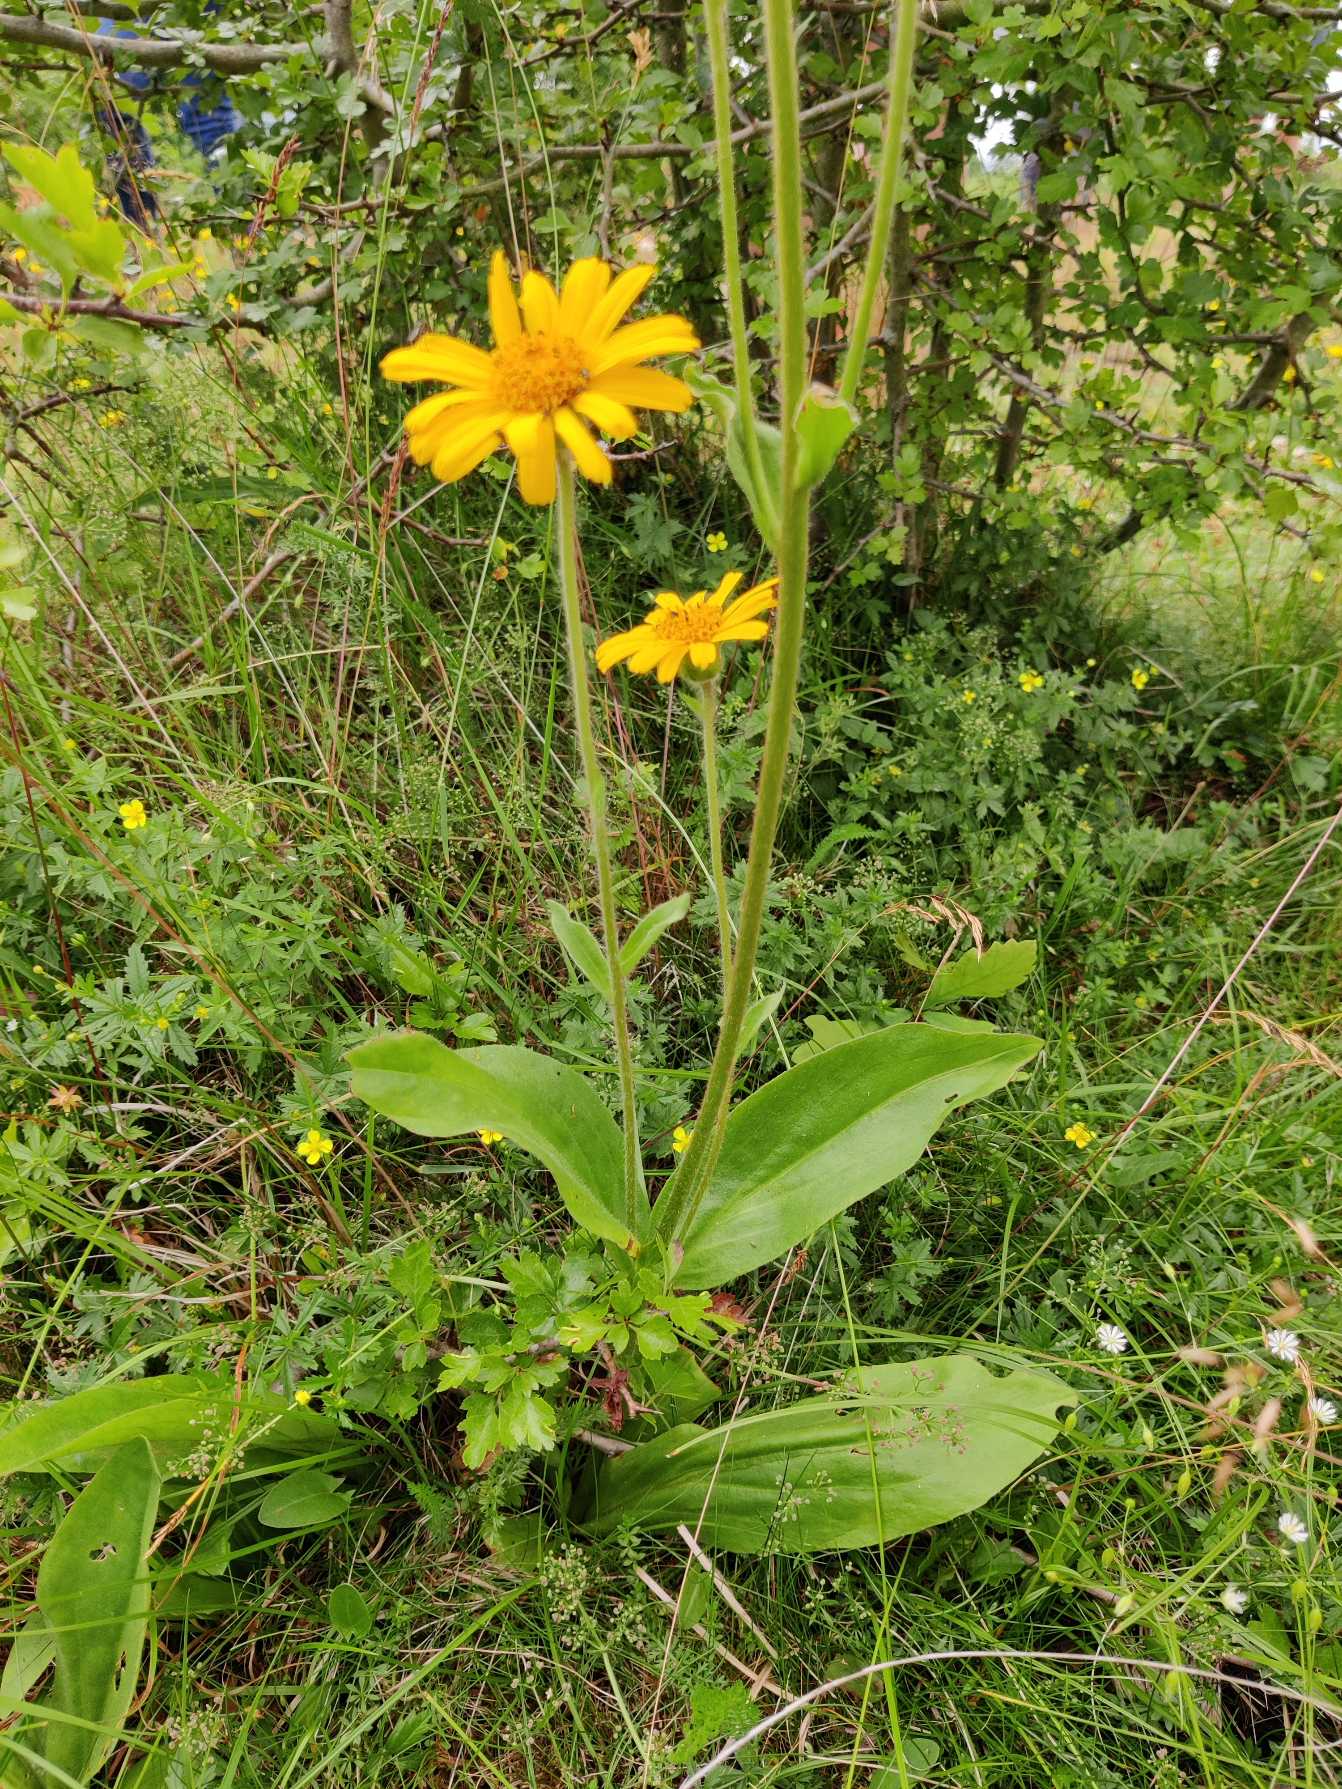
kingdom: Plantae
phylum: Tracheophyta
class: Magnoliopsida
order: Asterales
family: Asteraceae
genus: Arnica
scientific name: Arnica montana
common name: Guldblomme
